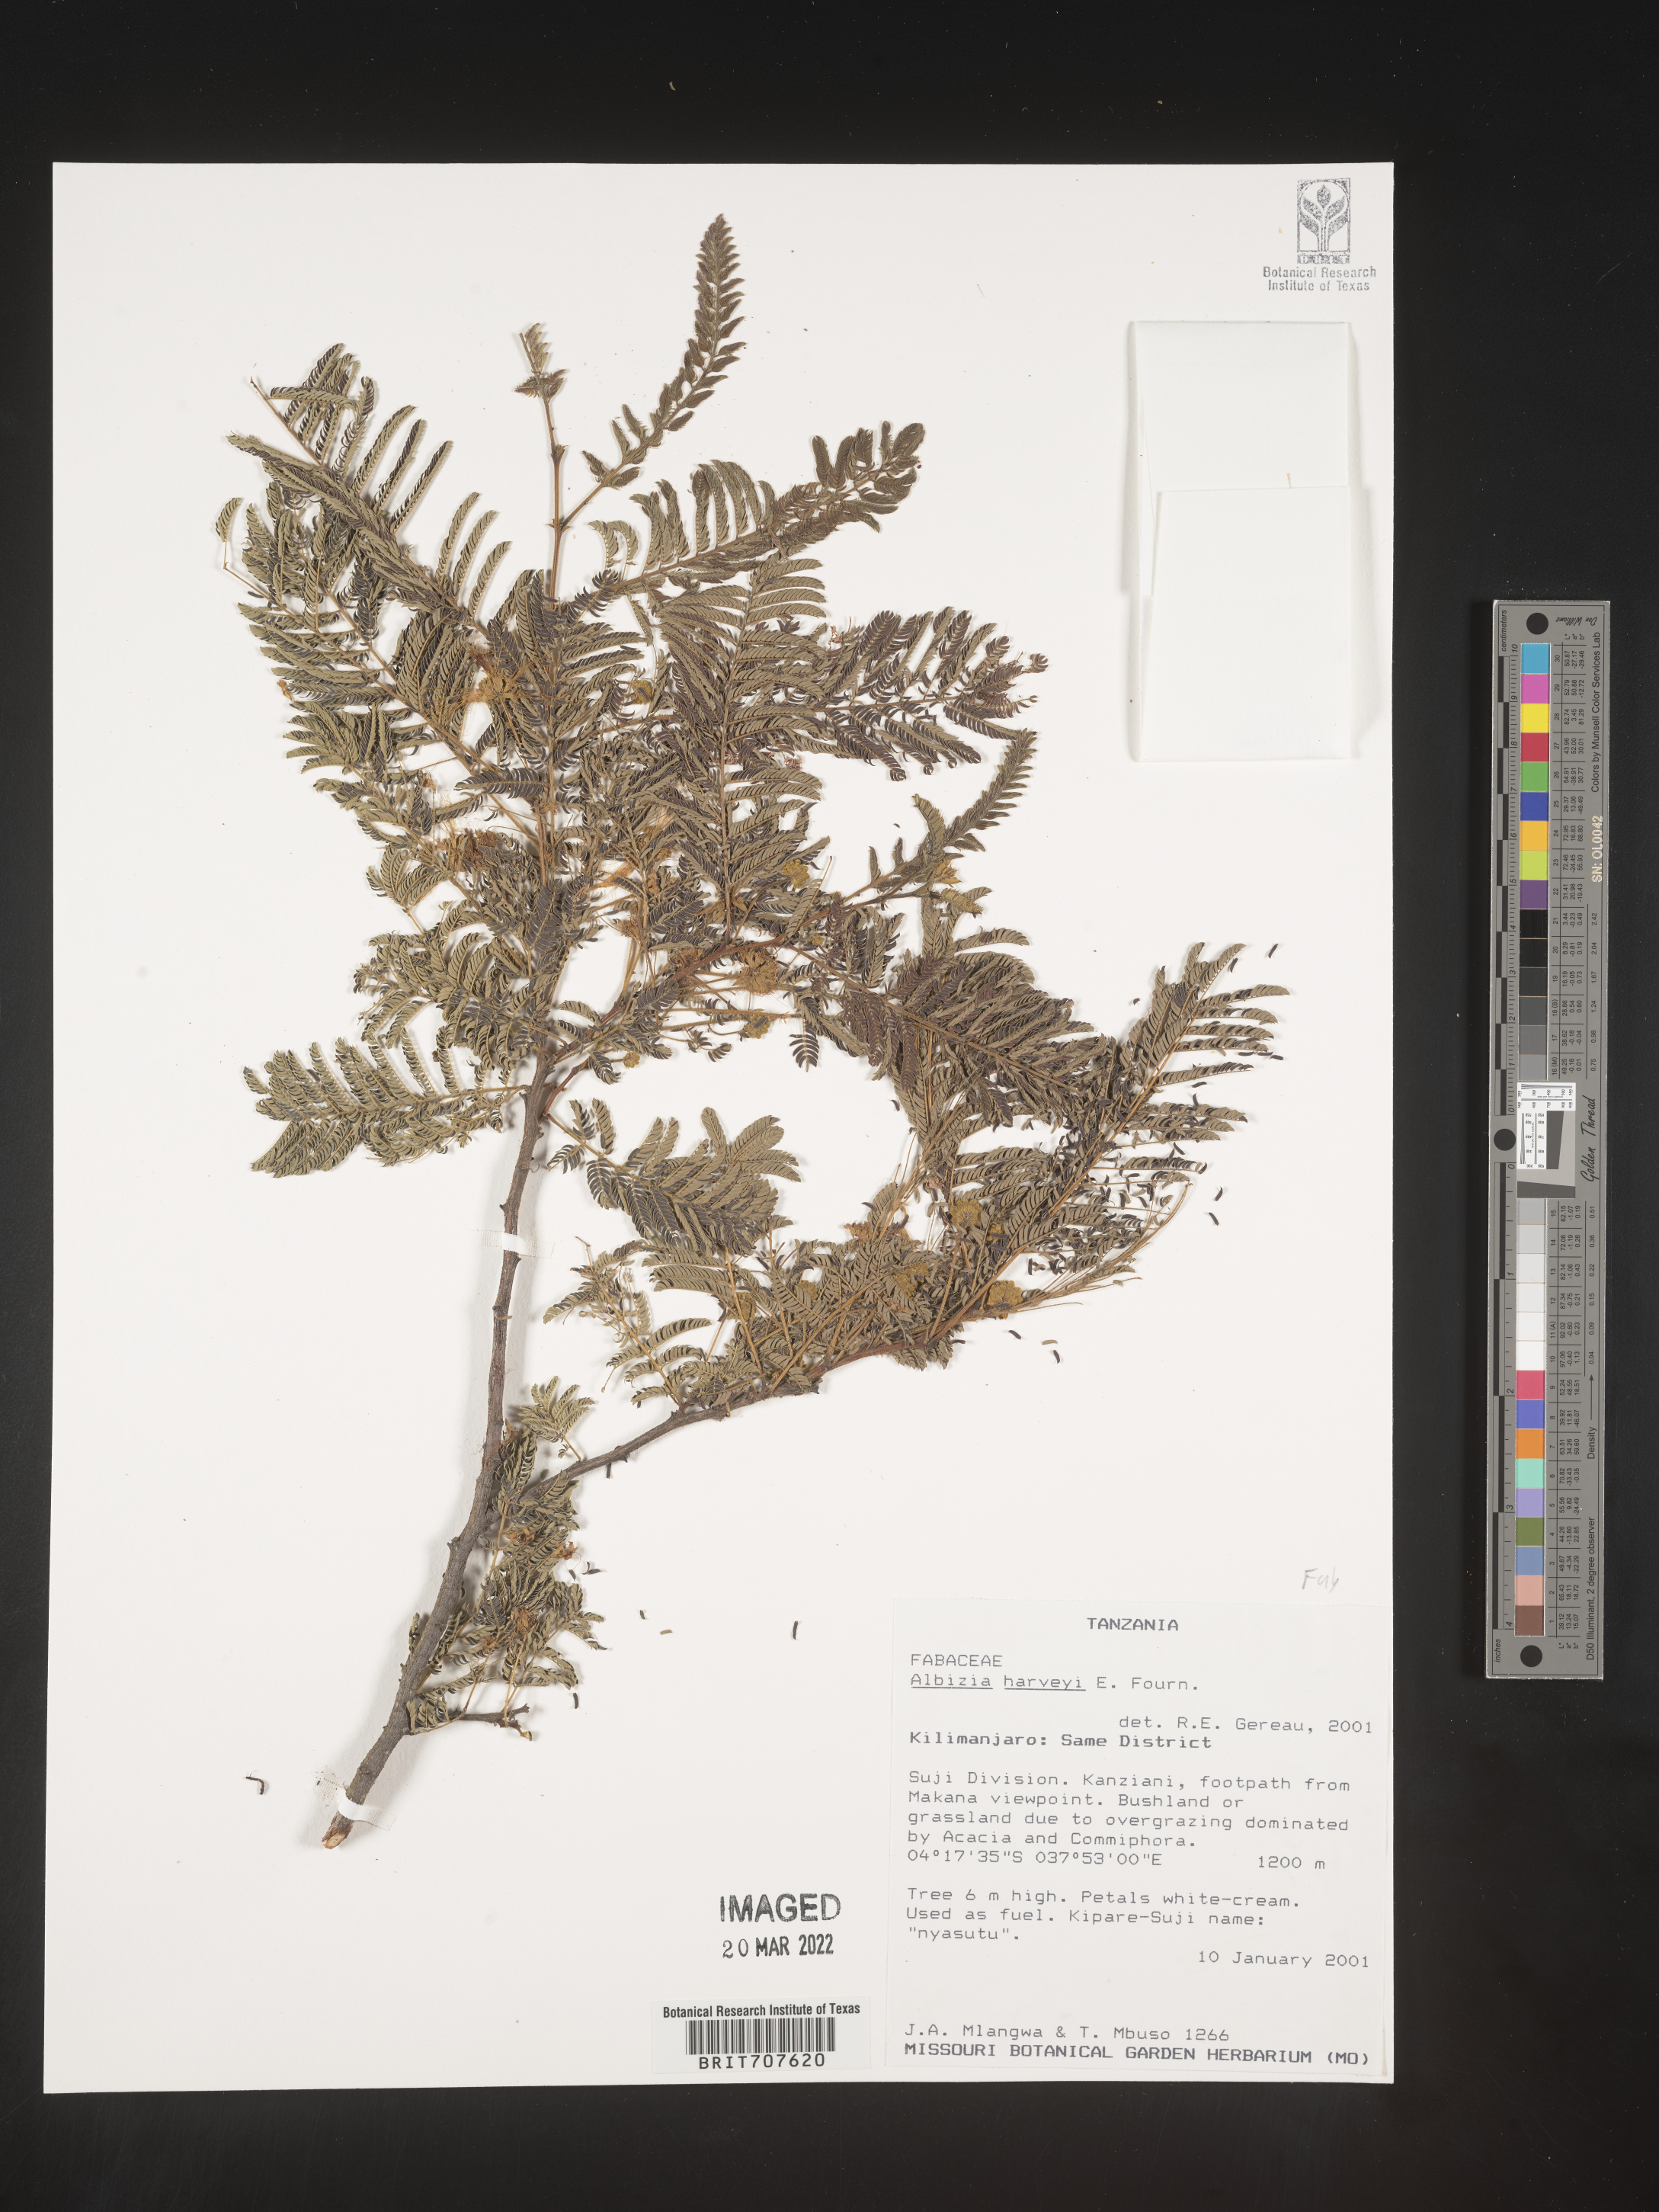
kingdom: Plantae
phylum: Tracheophyta
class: Magnoliopsida
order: Fabales
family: Fabaceae
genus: Albizia
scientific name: Albizia
